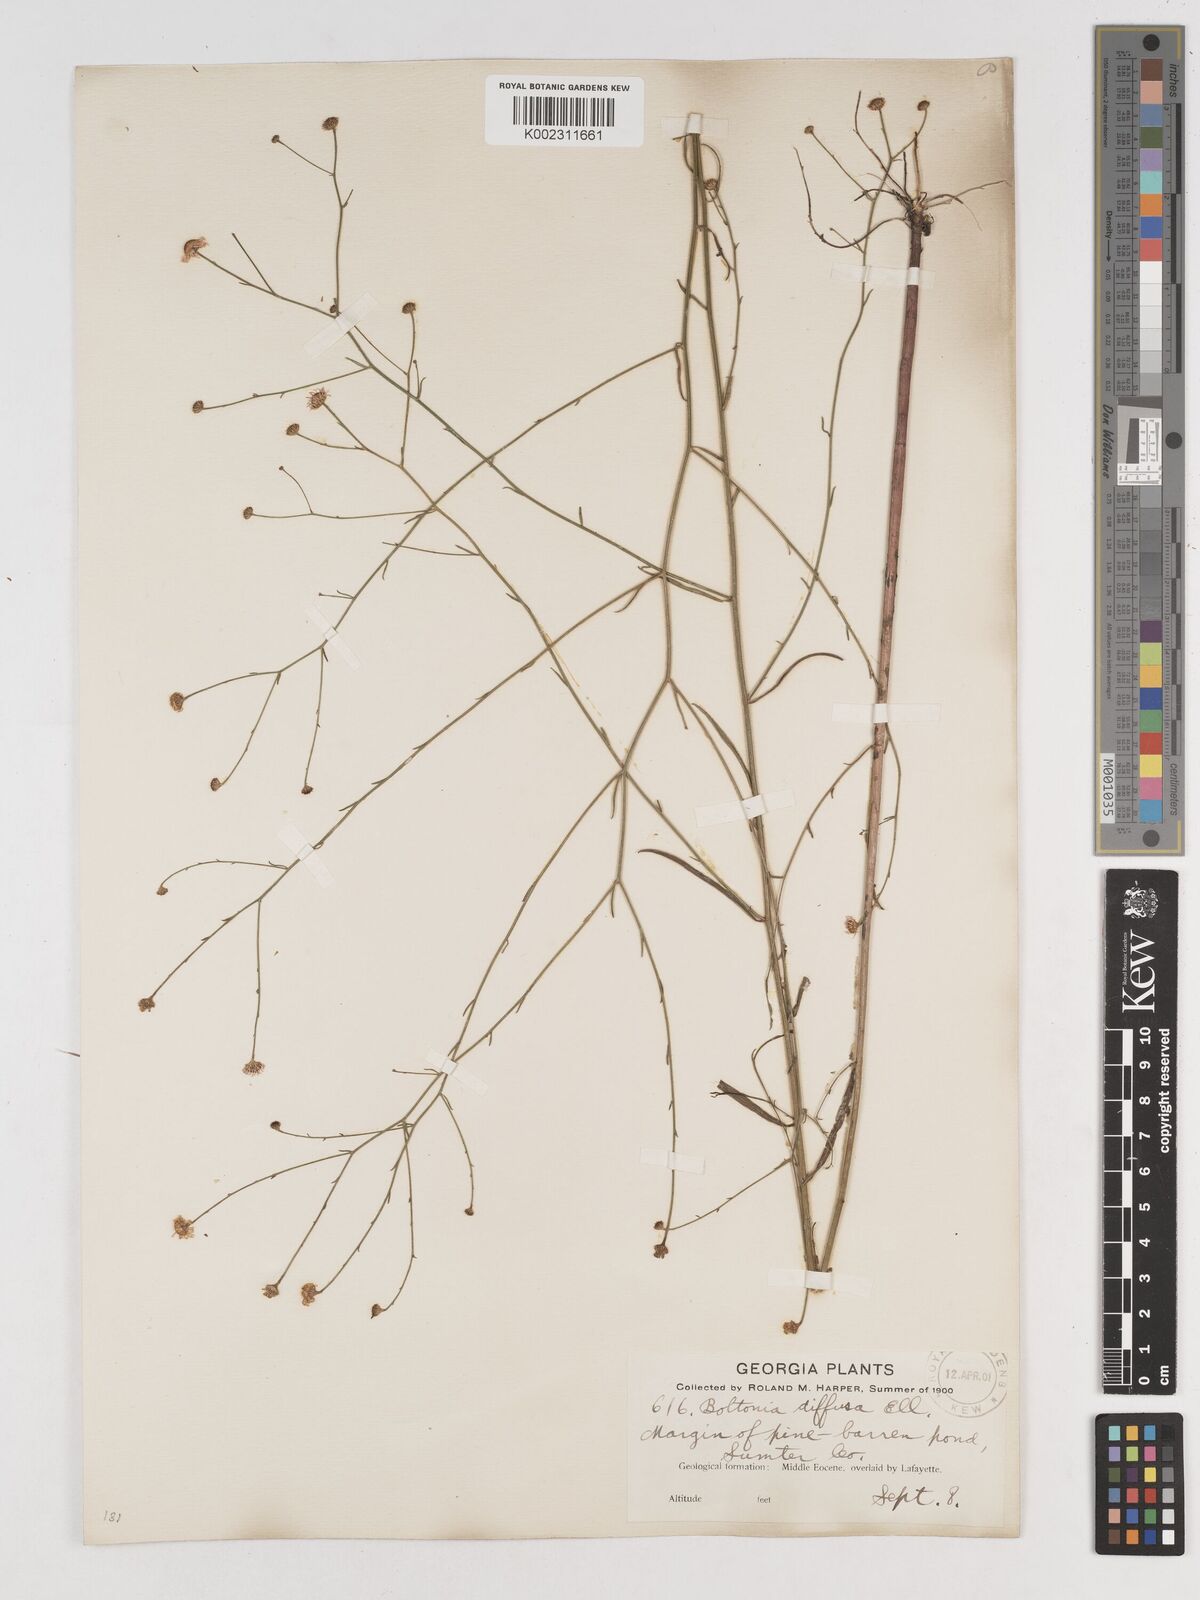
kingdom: Plantae
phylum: Tracheophyta
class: Magnoliopsida
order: Asterales
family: Asteraceae
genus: Boltonia
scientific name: Boltonia diffusa
